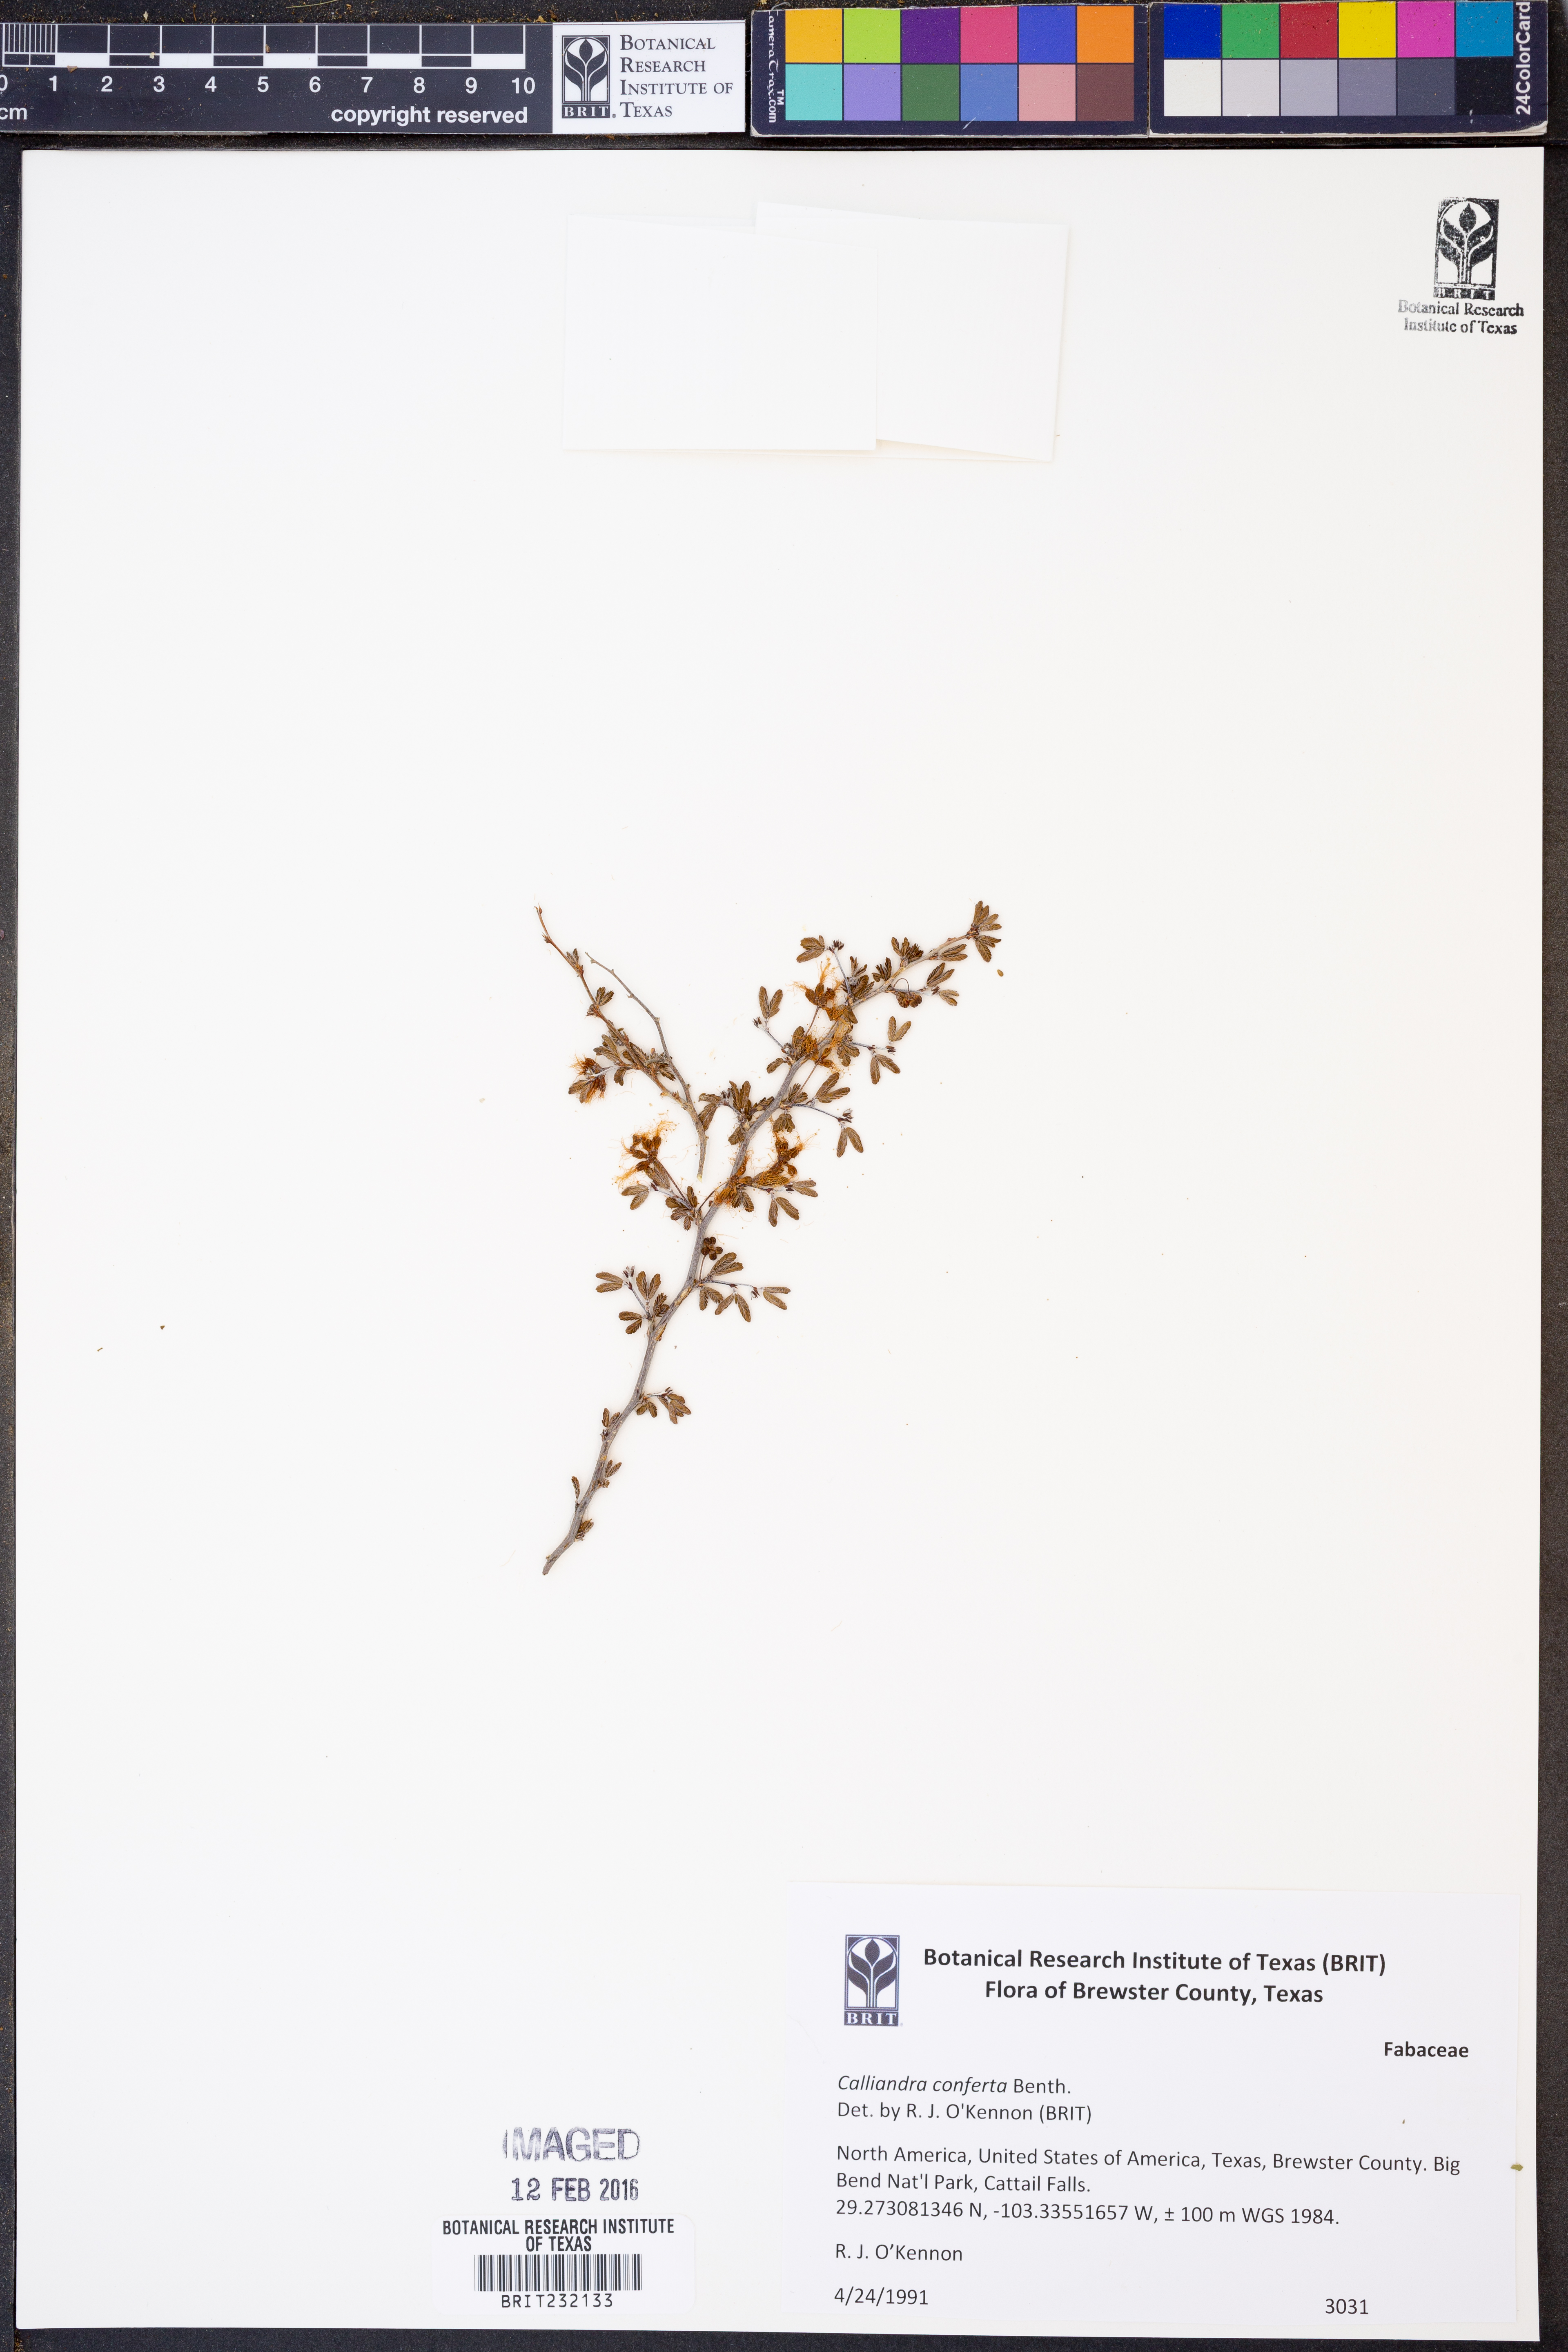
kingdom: Plantae
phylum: Tracheophyta
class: Magnoliopsida
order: Fabales
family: Fabaceae
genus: Calliandra
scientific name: Calliandra conferta
